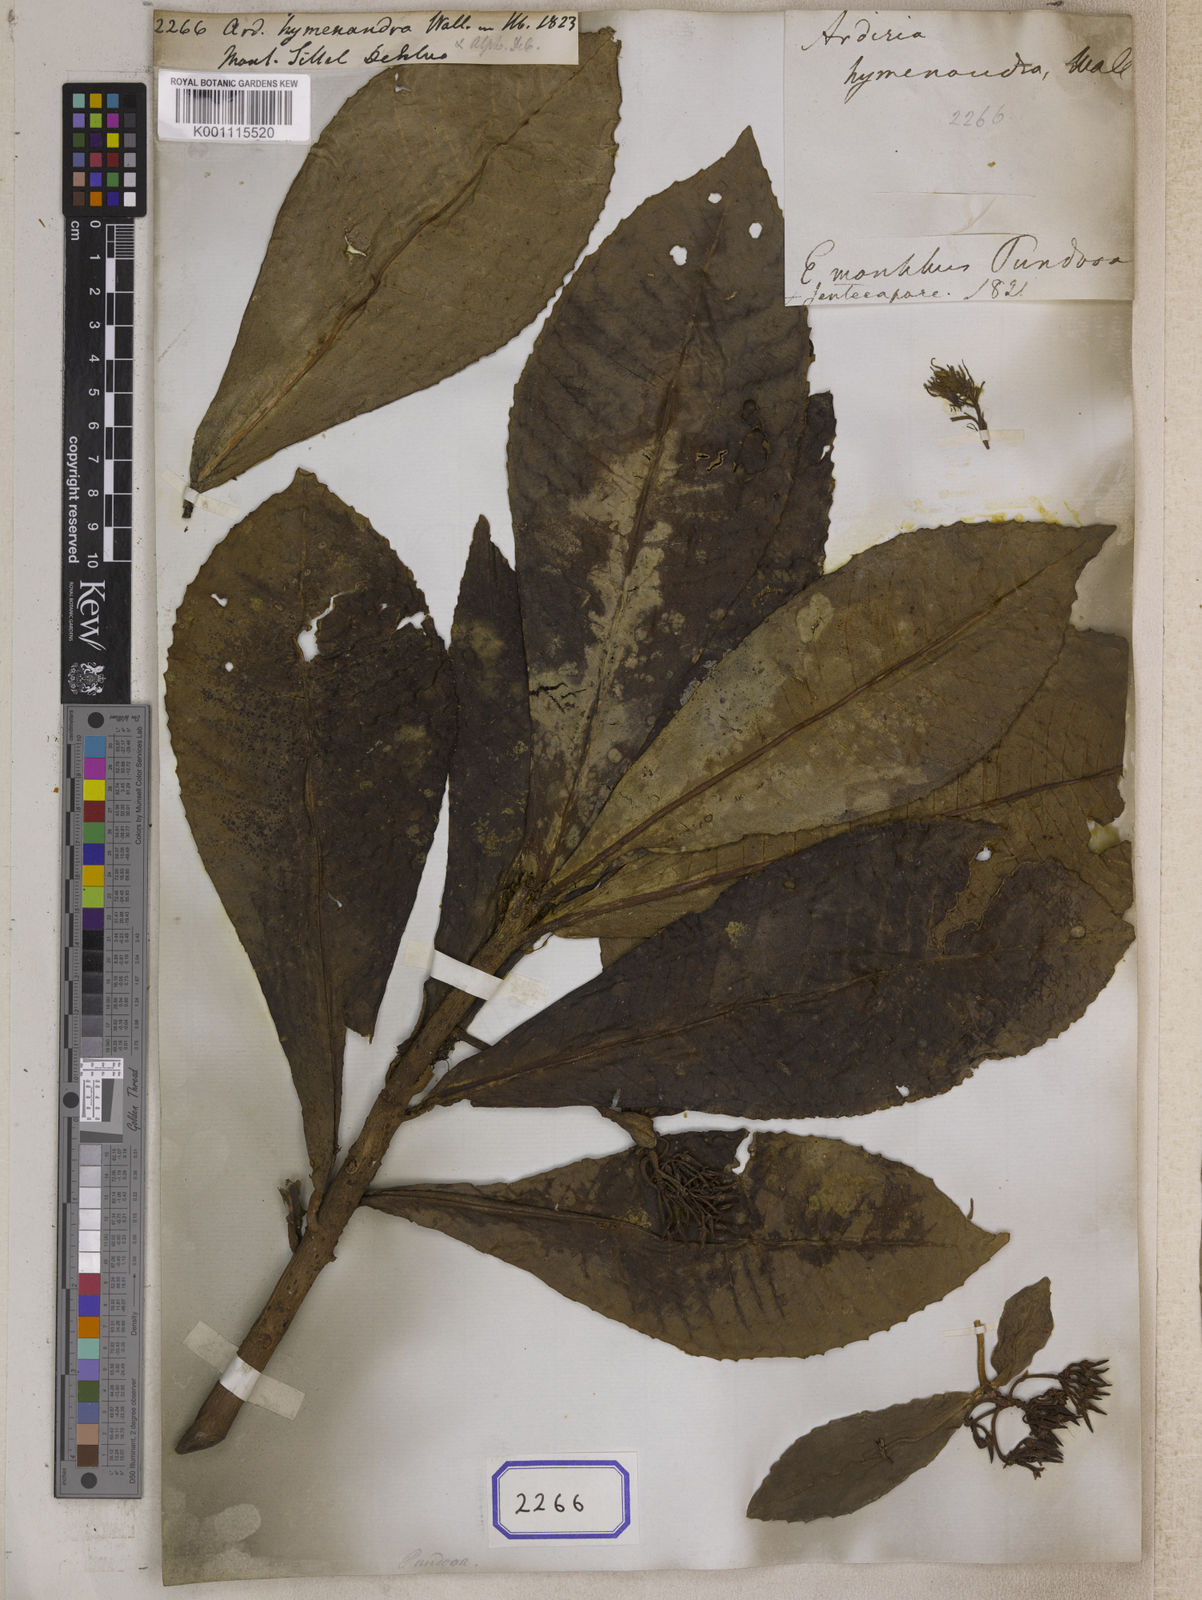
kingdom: Plantae
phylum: Tracheophyta
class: Magnoliopsida
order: Ericales
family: Primulaceae
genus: Hymenandra
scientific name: Hymenandra wallichii
